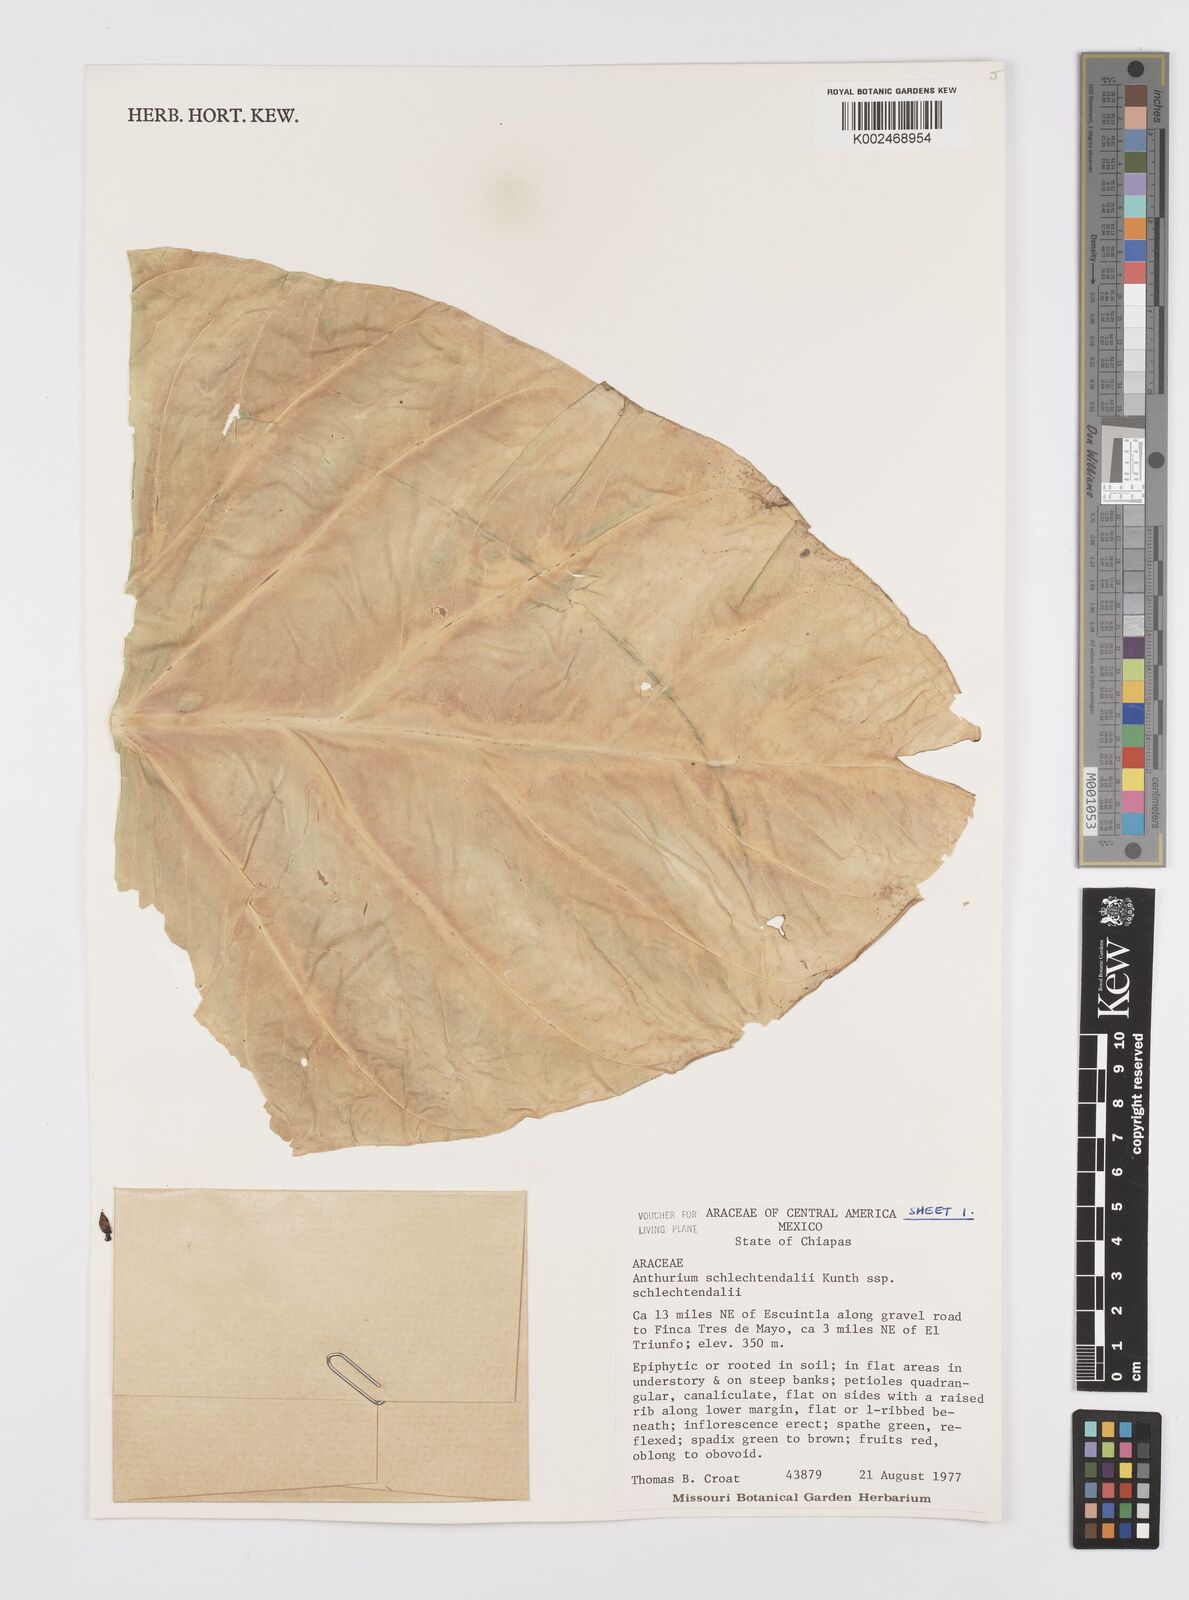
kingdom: Plantae
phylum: Tracheophyta
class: Liliopsida
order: Alismatales
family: Araceae
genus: Anthurium
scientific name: Anthurium schlechtendalii
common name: Laceleaf
